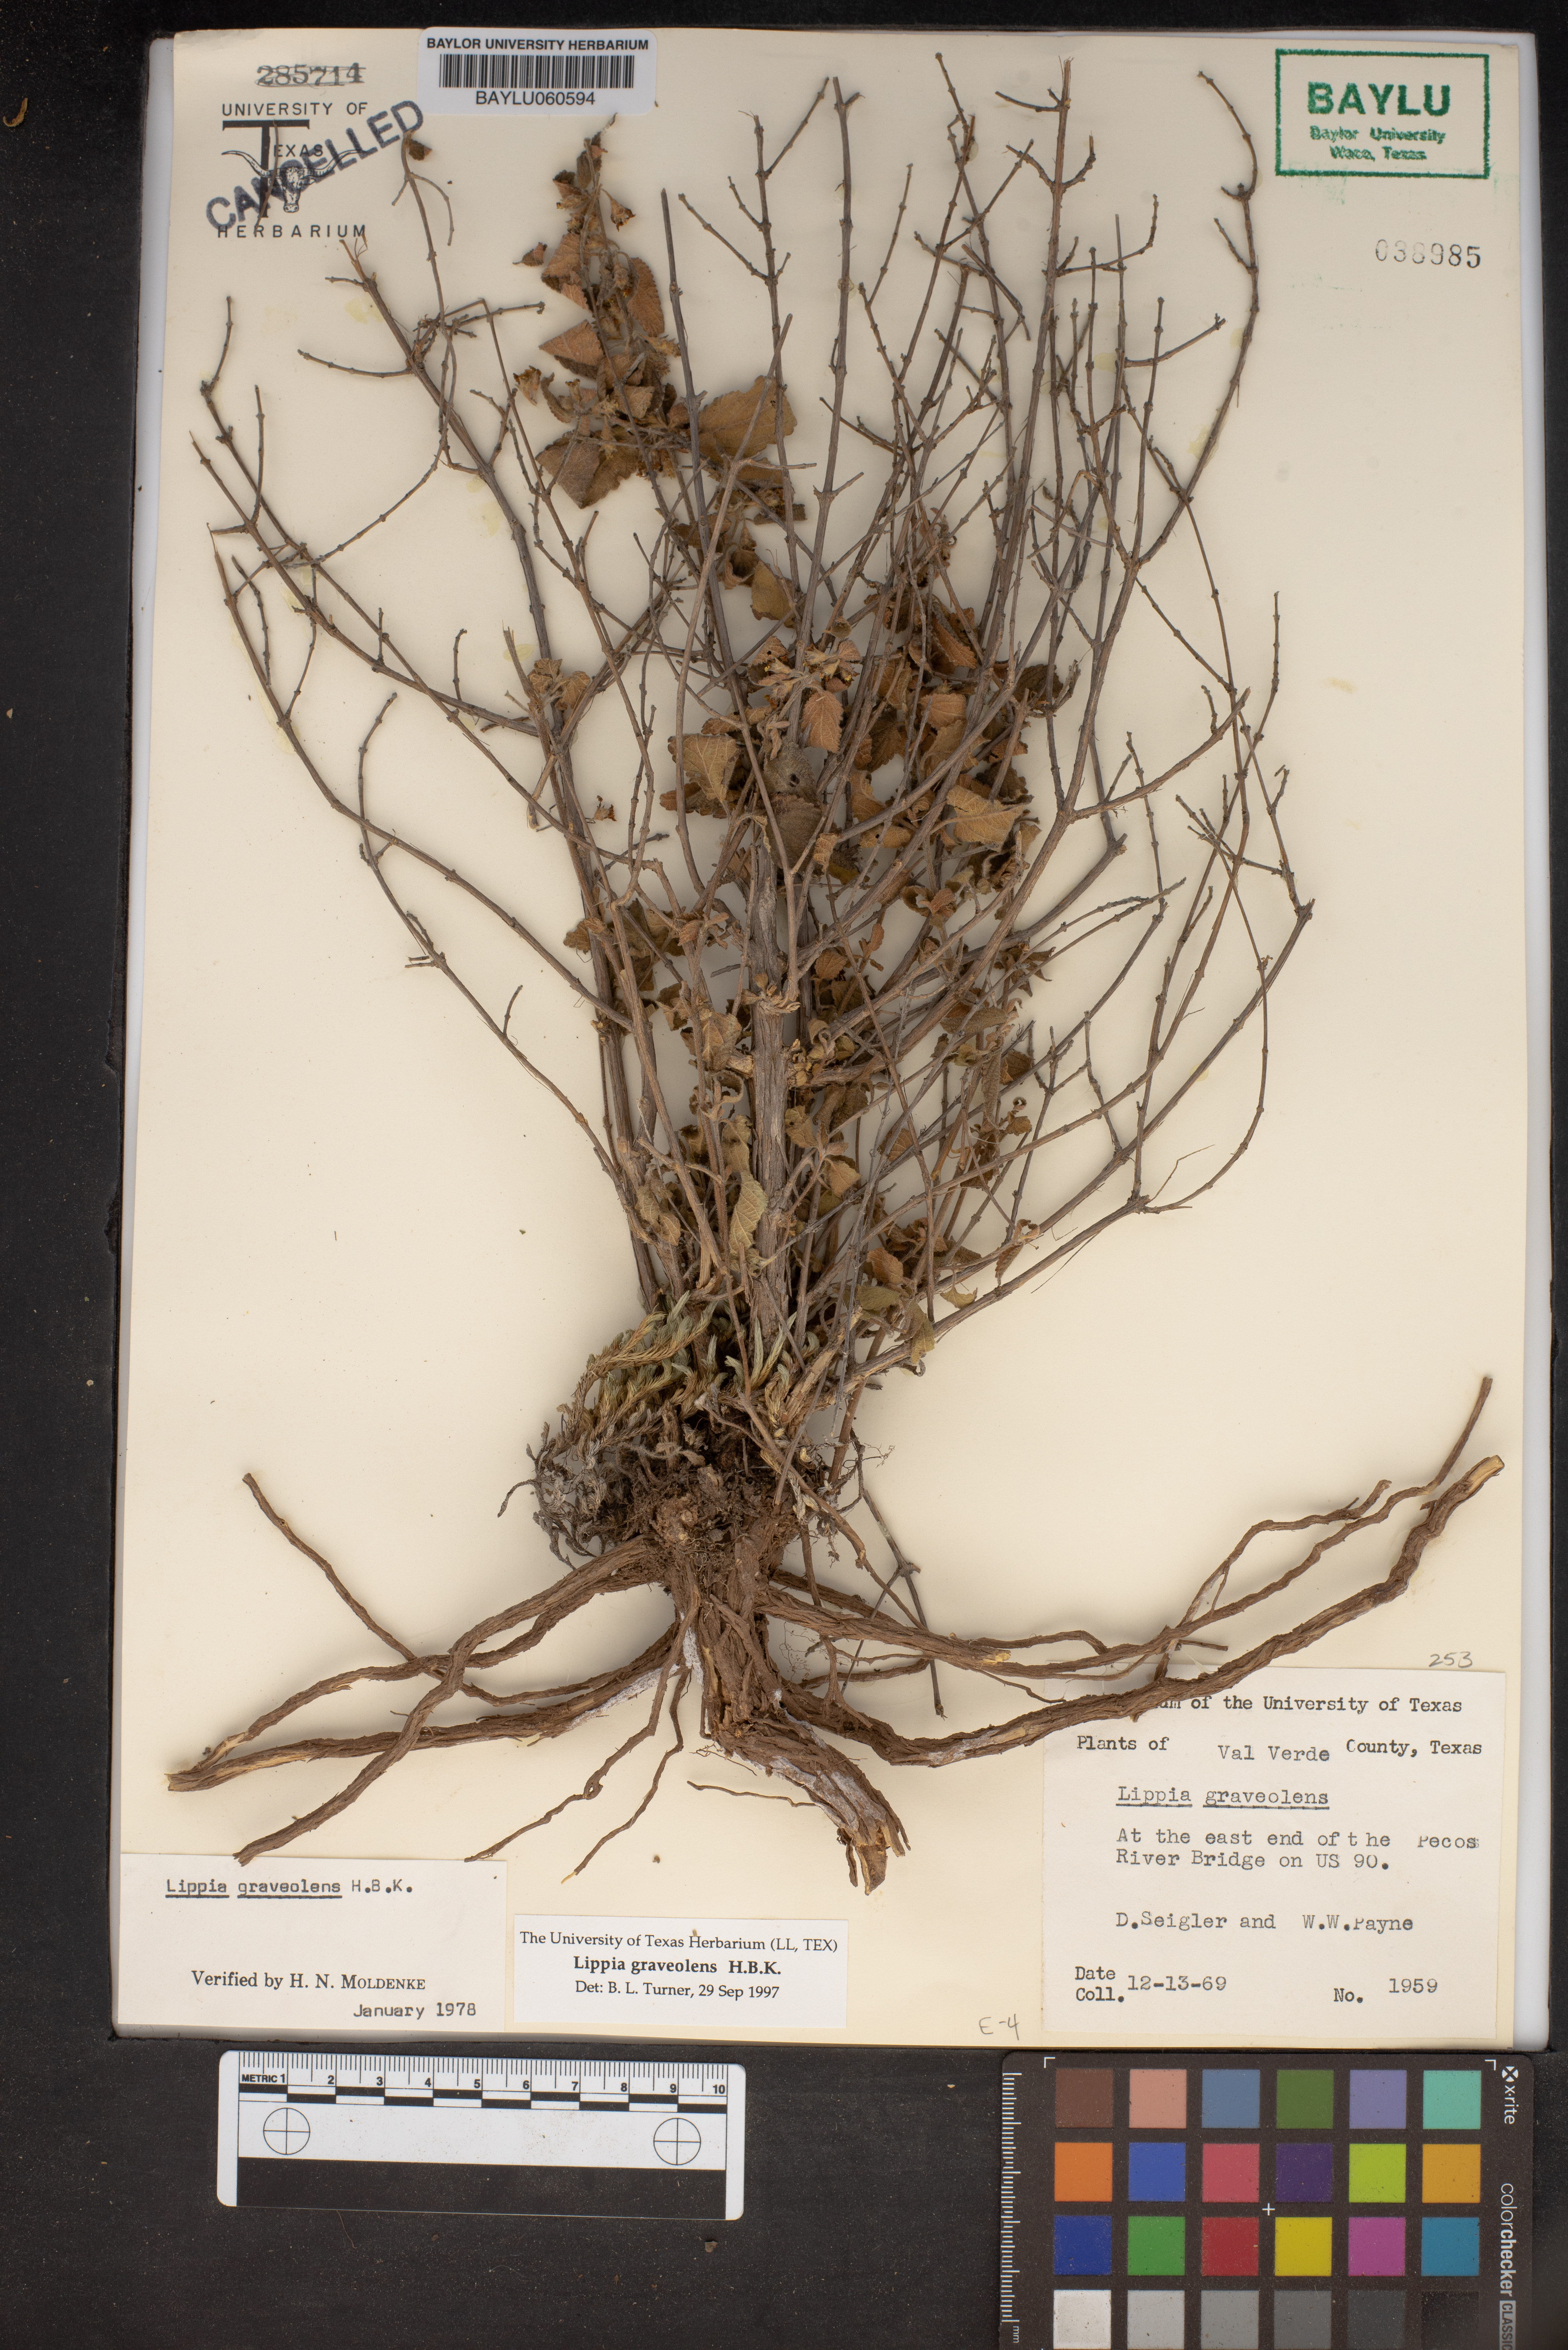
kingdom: Plantae
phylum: Tracheophyta
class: Magnoliopsida
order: Lamiales
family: Verbenaceae
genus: Lippia
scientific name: Lippia origanoides
